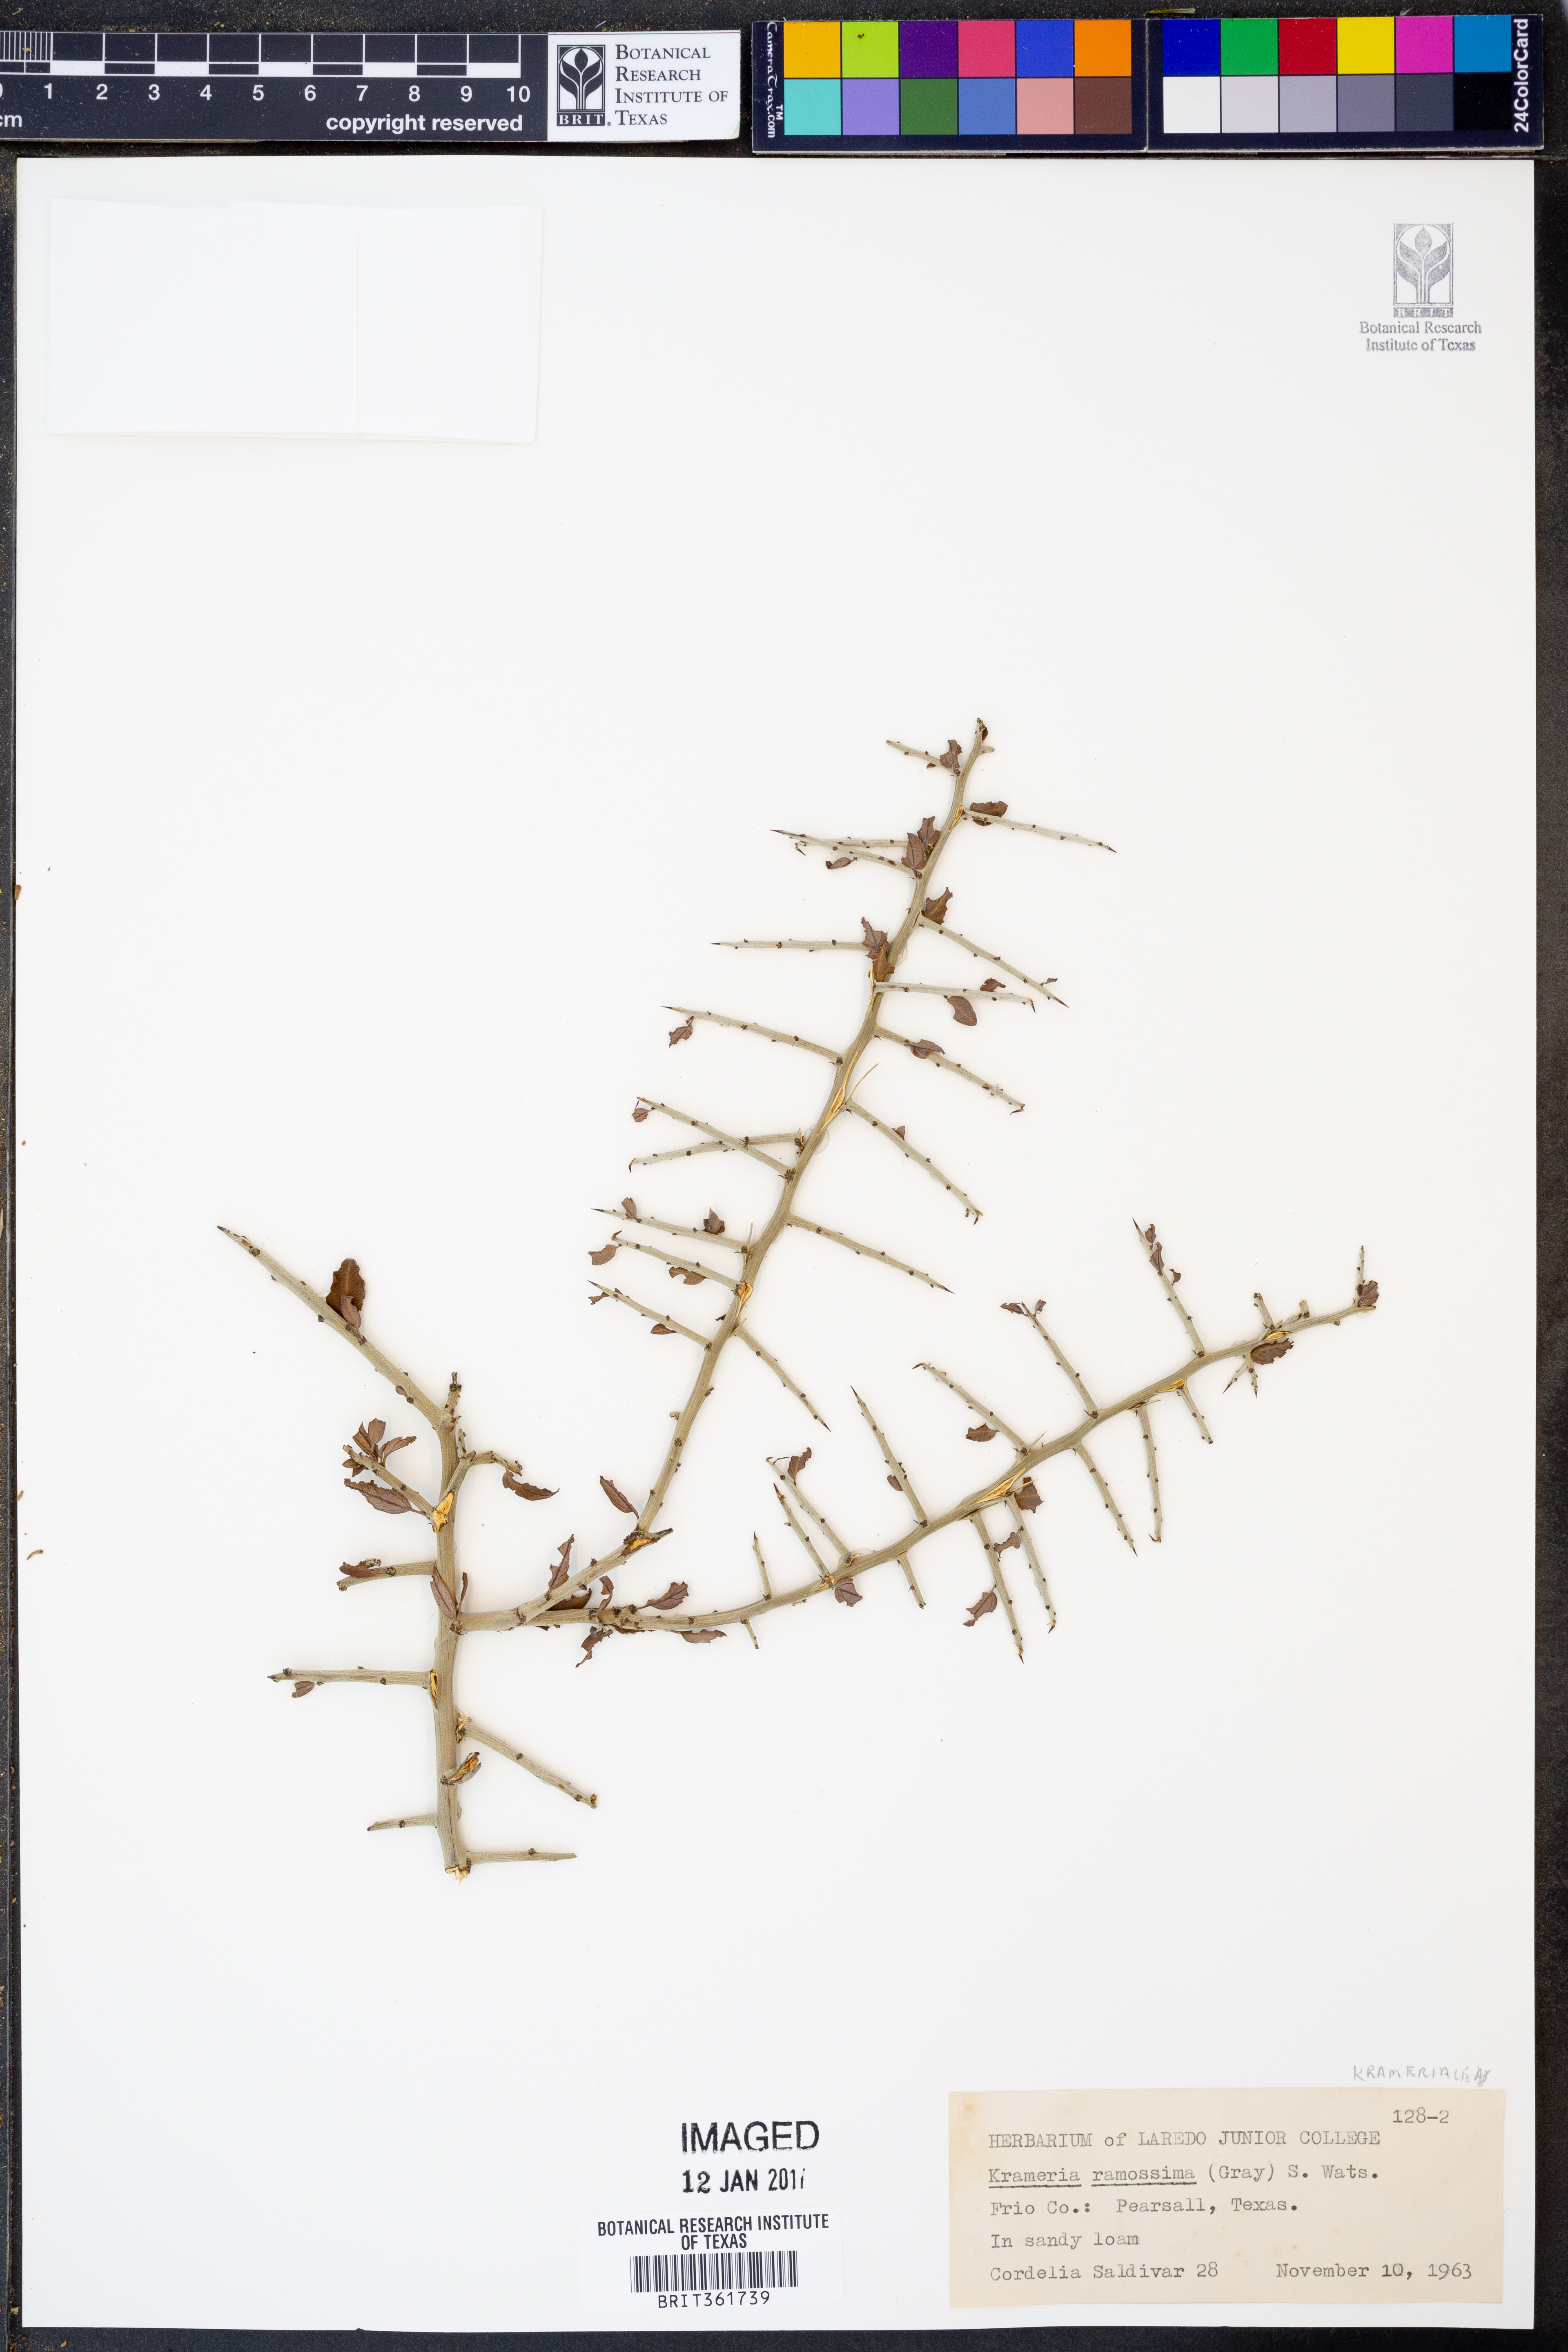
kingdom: Plantae
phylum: Tracheophyta
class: Magnoliopsida
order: Zygophyllales
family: Krameriaceae
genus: Krameria
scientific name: Krameria ramosissima
